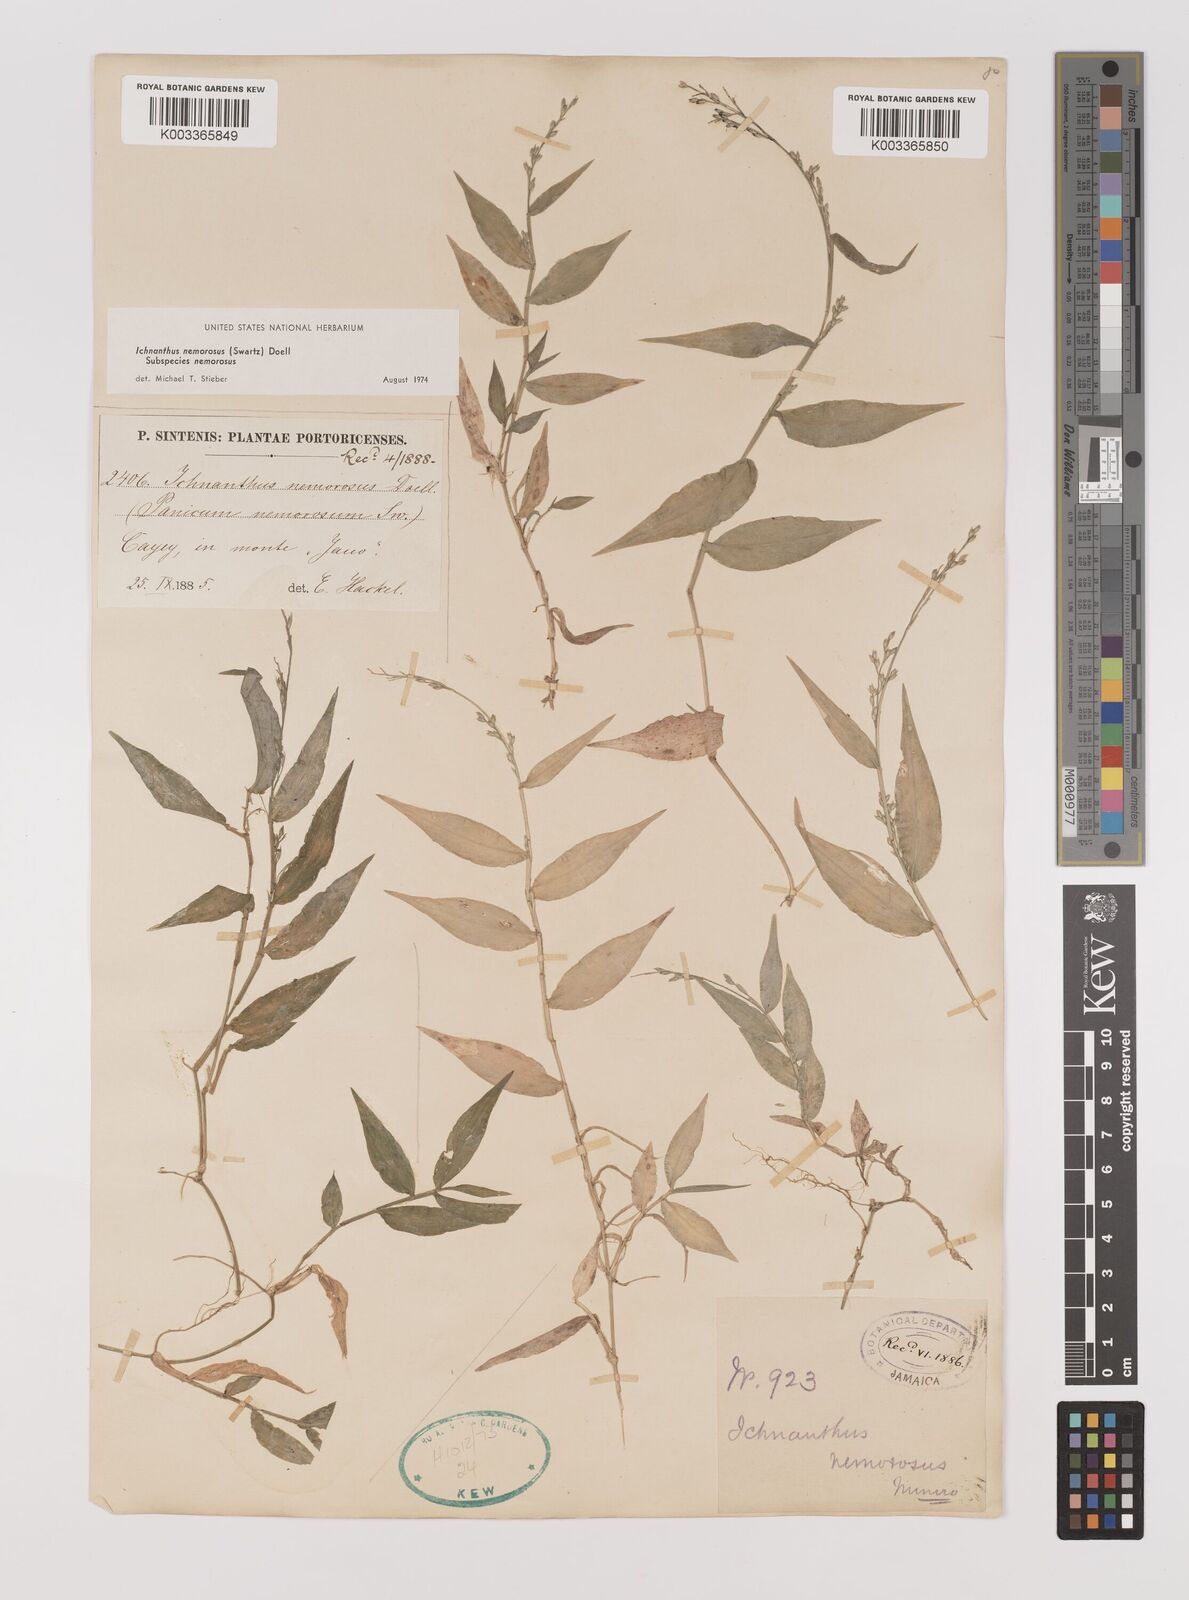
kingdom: Plantae
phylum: Tracheophyta
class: Liliopsida
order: Poales
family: Poaceae
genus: Ichnanthus
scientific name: Ichnanthus nemorosus
